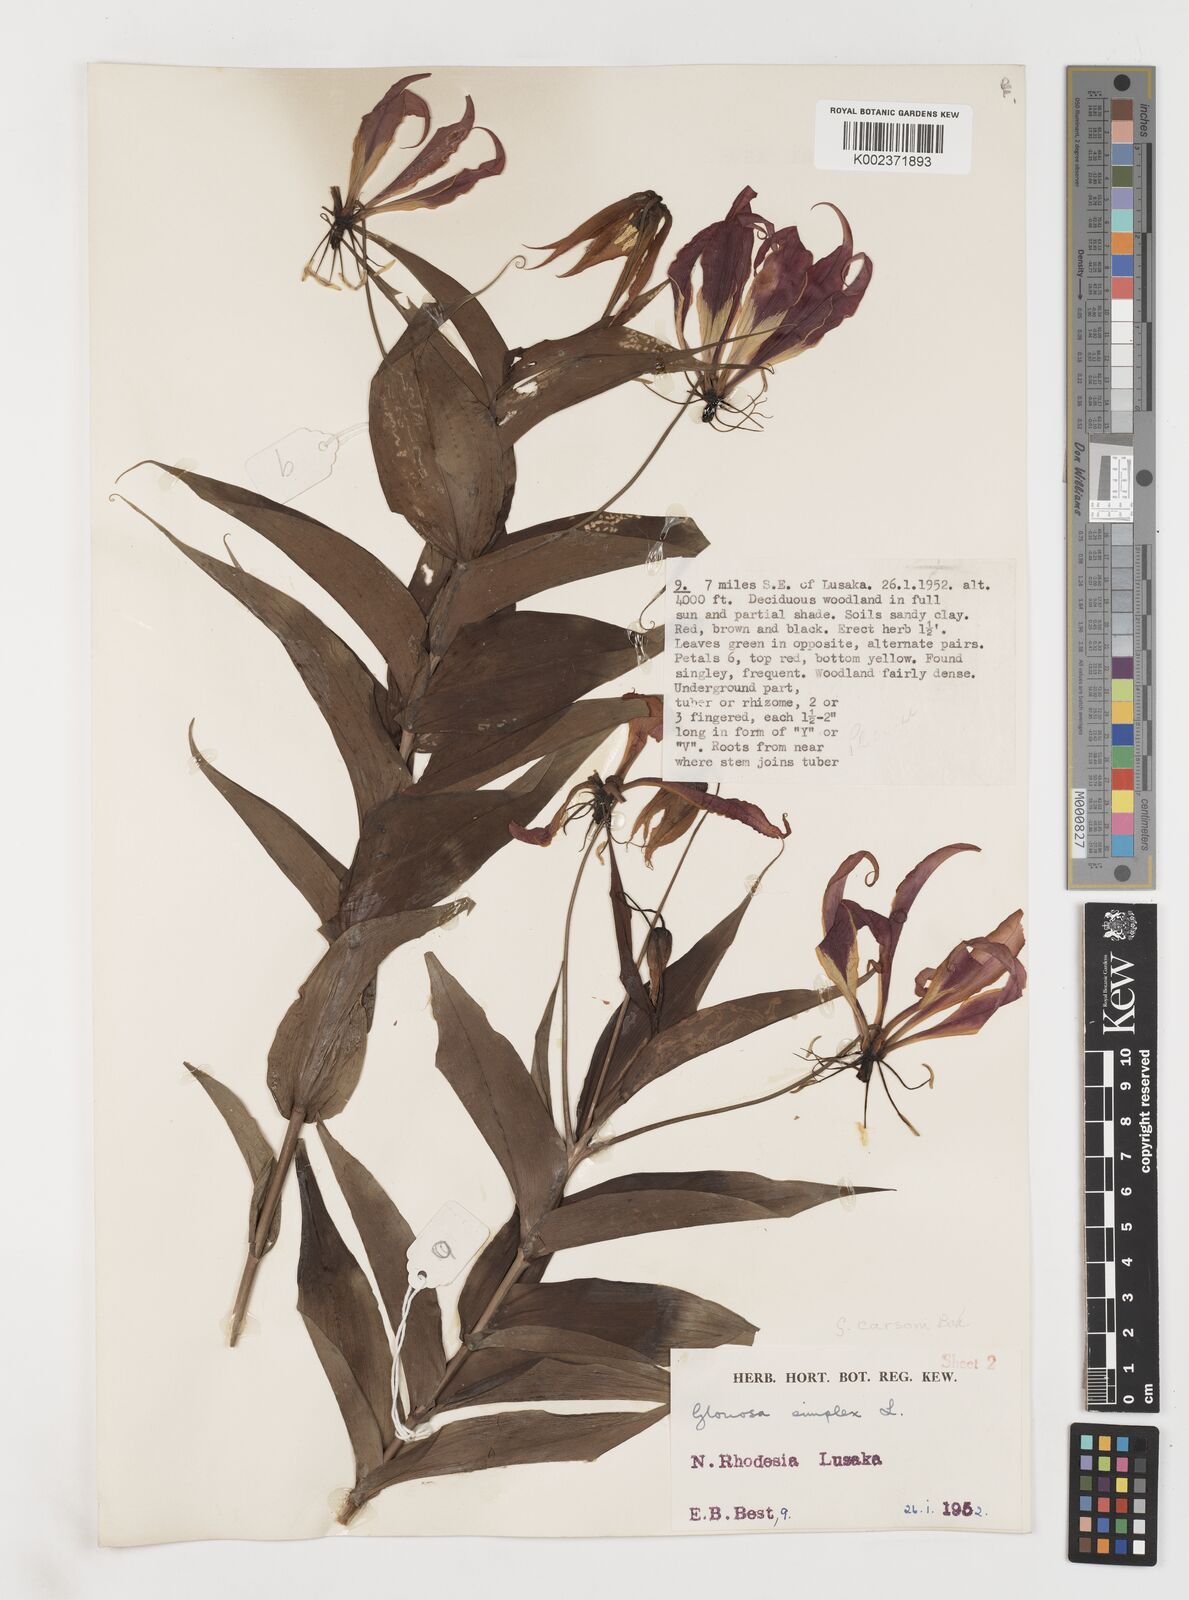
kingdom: Plantae
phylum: Tracheophyta
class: Liliopsida
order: Liliales
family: Colchicaceae
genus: Gloriosa
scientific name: Gloriosa simplex
